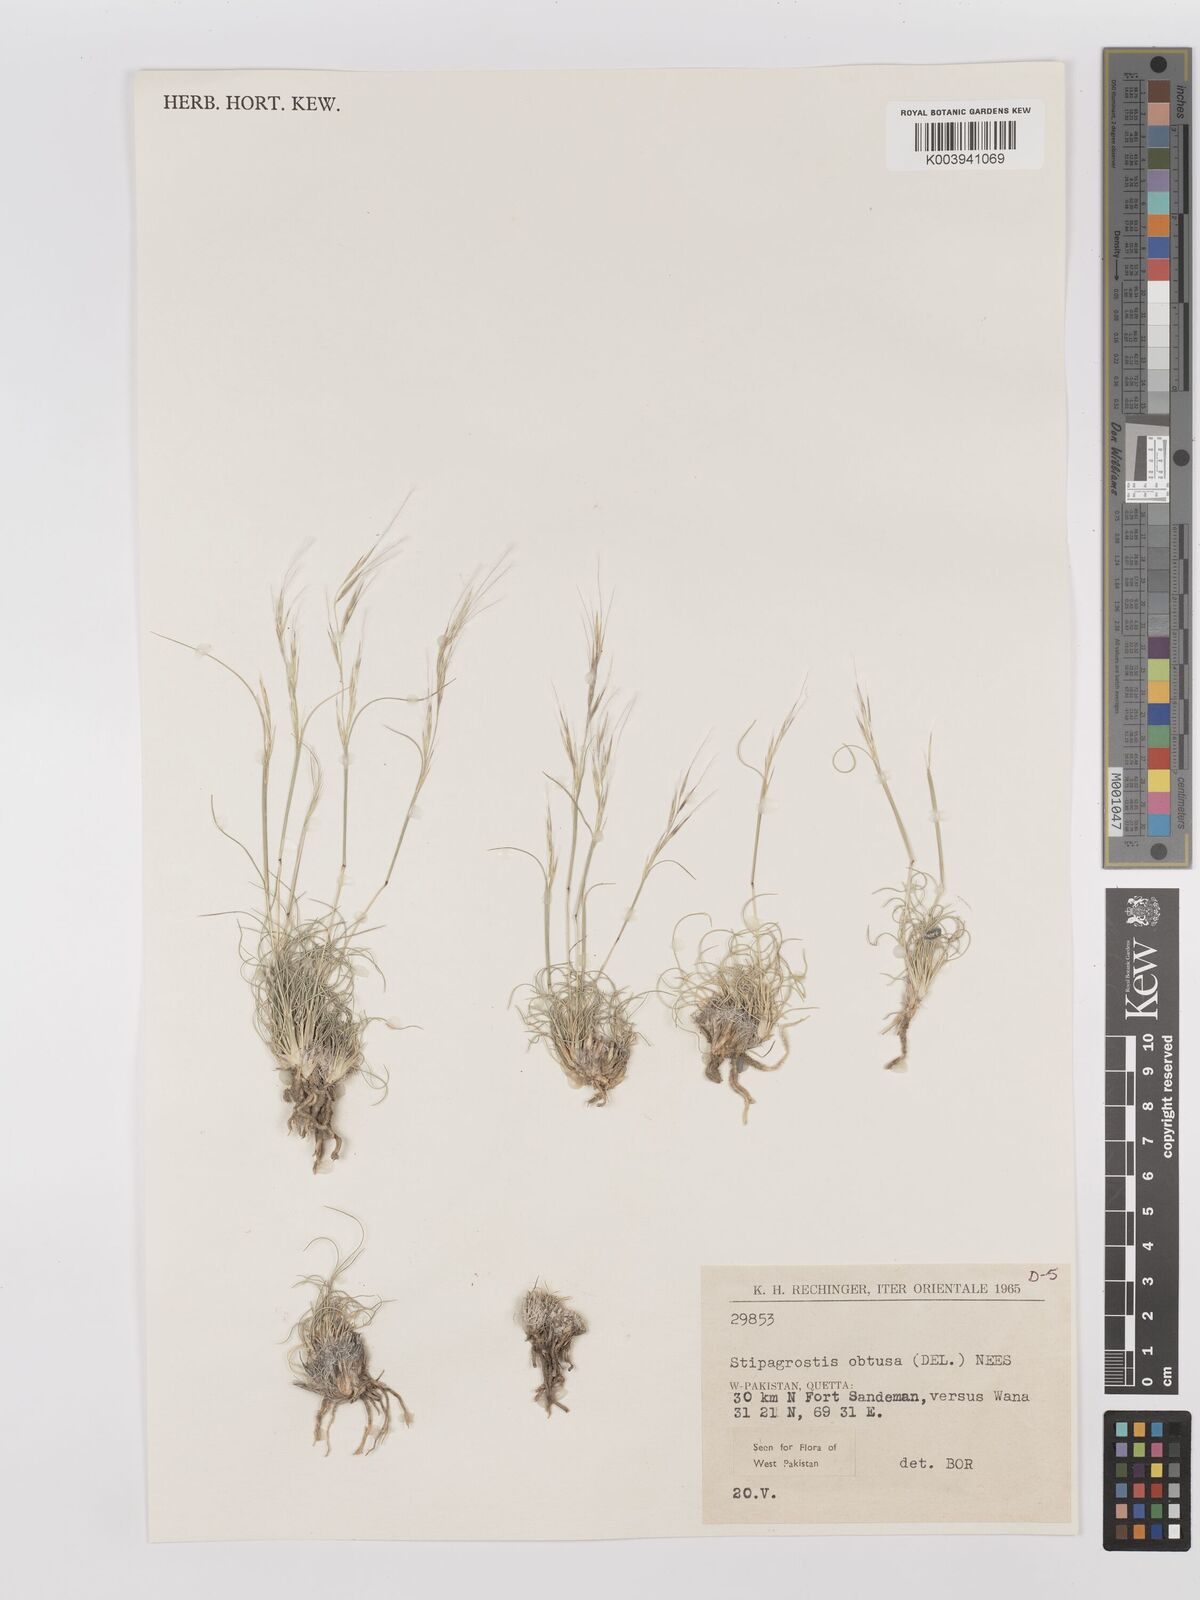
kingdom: Plantae
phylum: Tracheophyta
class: Liliopsida
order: Poales
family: Poaceae
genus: Stipagrostis
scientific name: Stipagrostis obtusa
